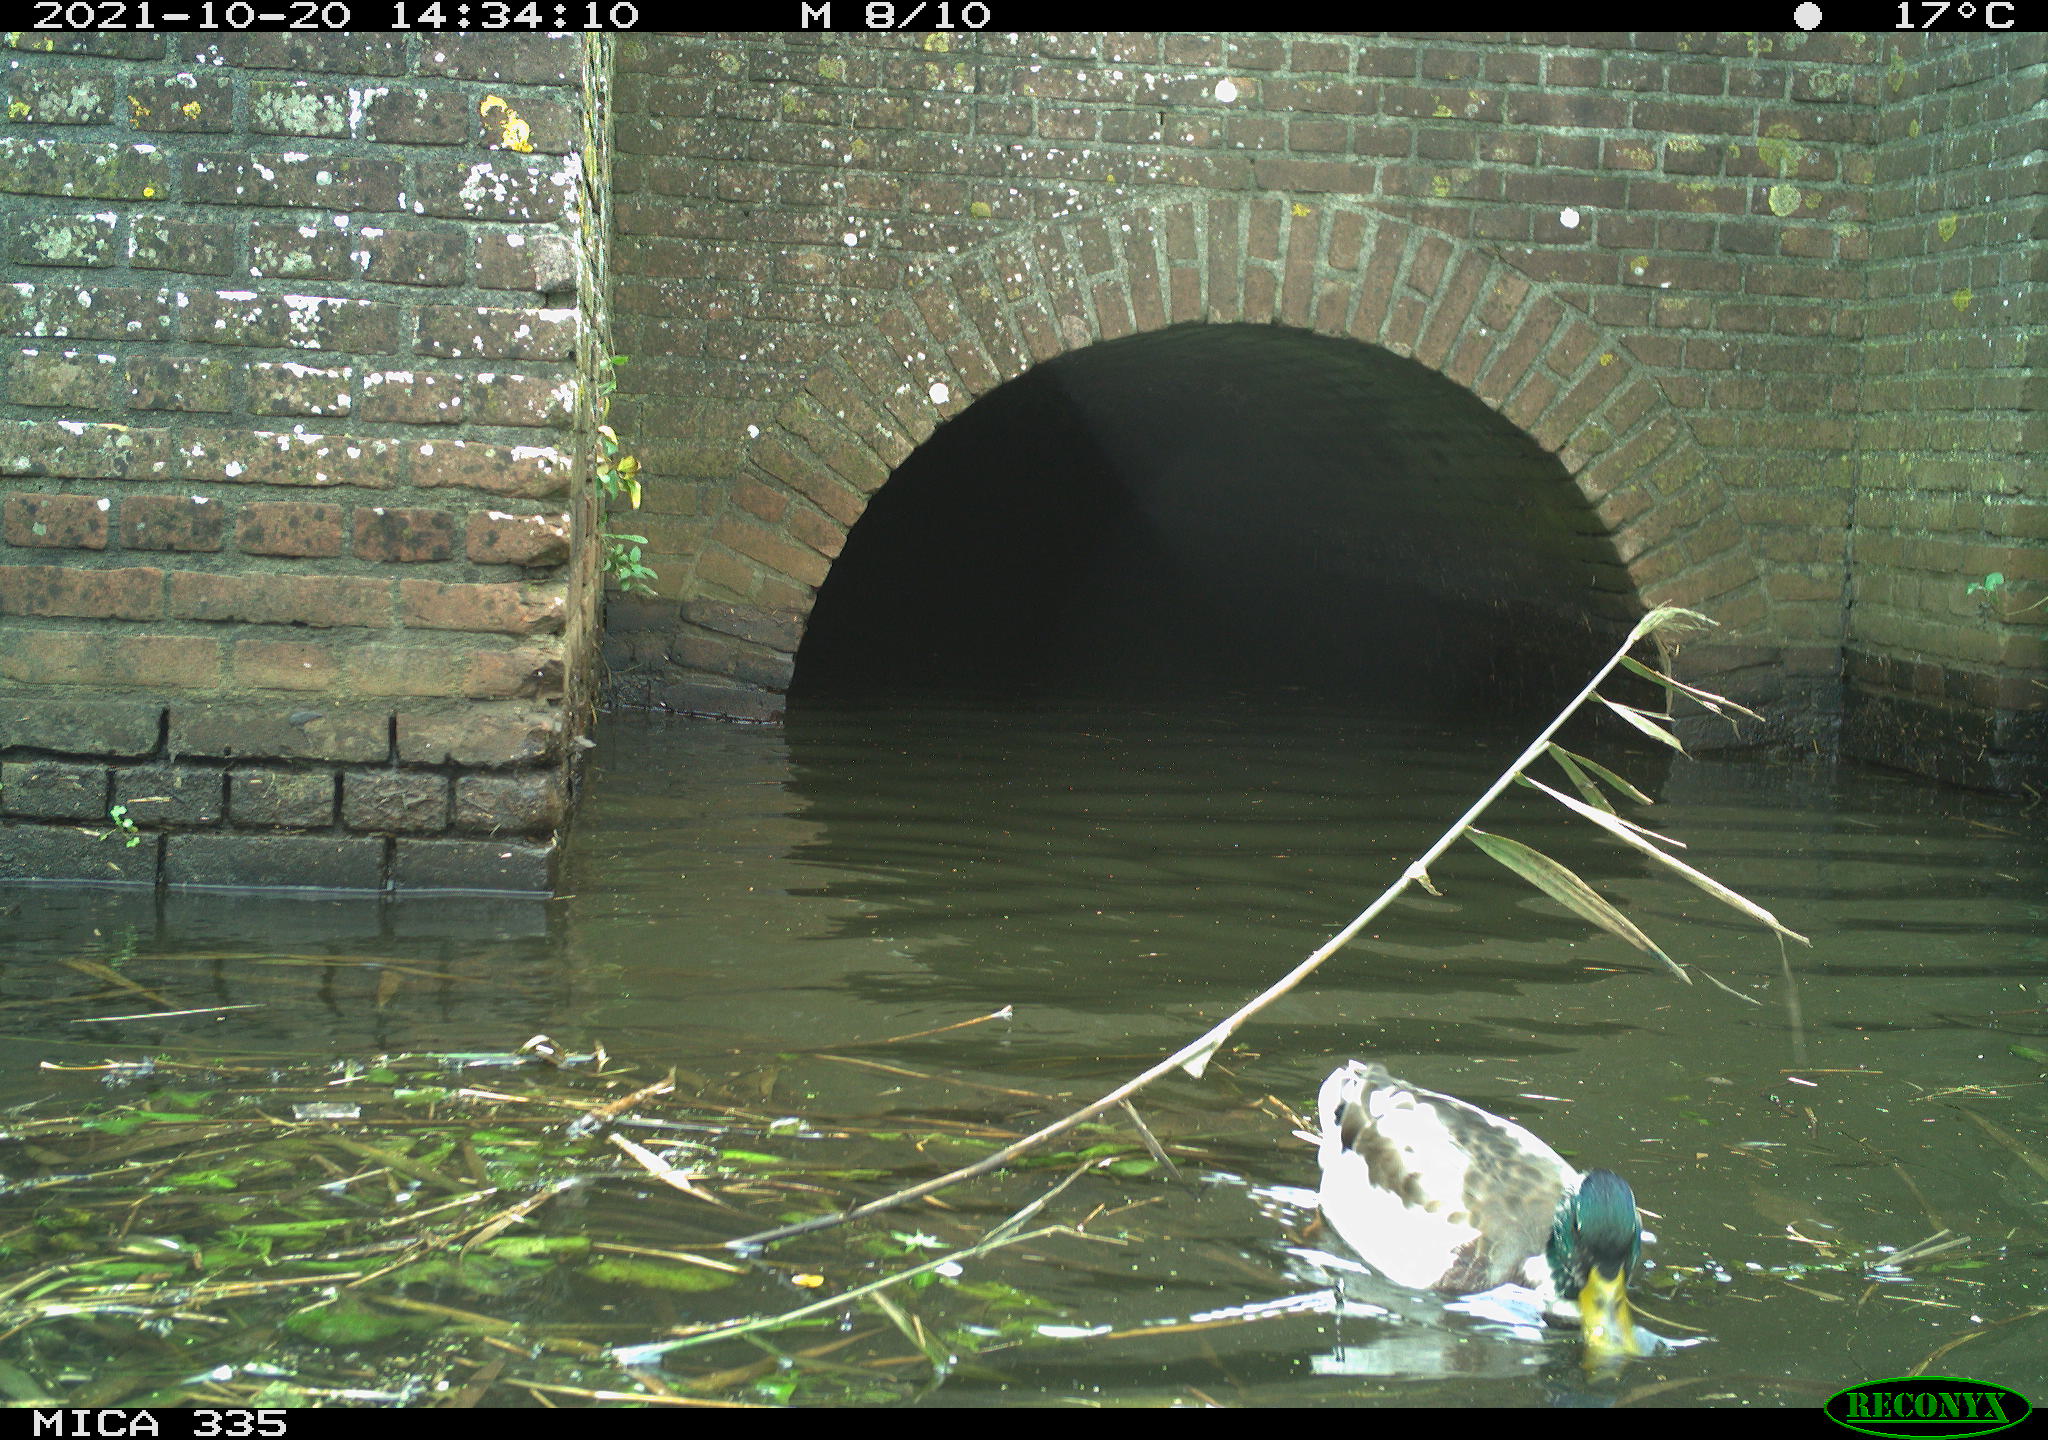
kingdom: Animalia
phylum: Chordata
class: Aves
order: Anseriformes
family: Anatidae
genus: Anas
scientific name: Anas platyrhynchos
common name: Mallard
